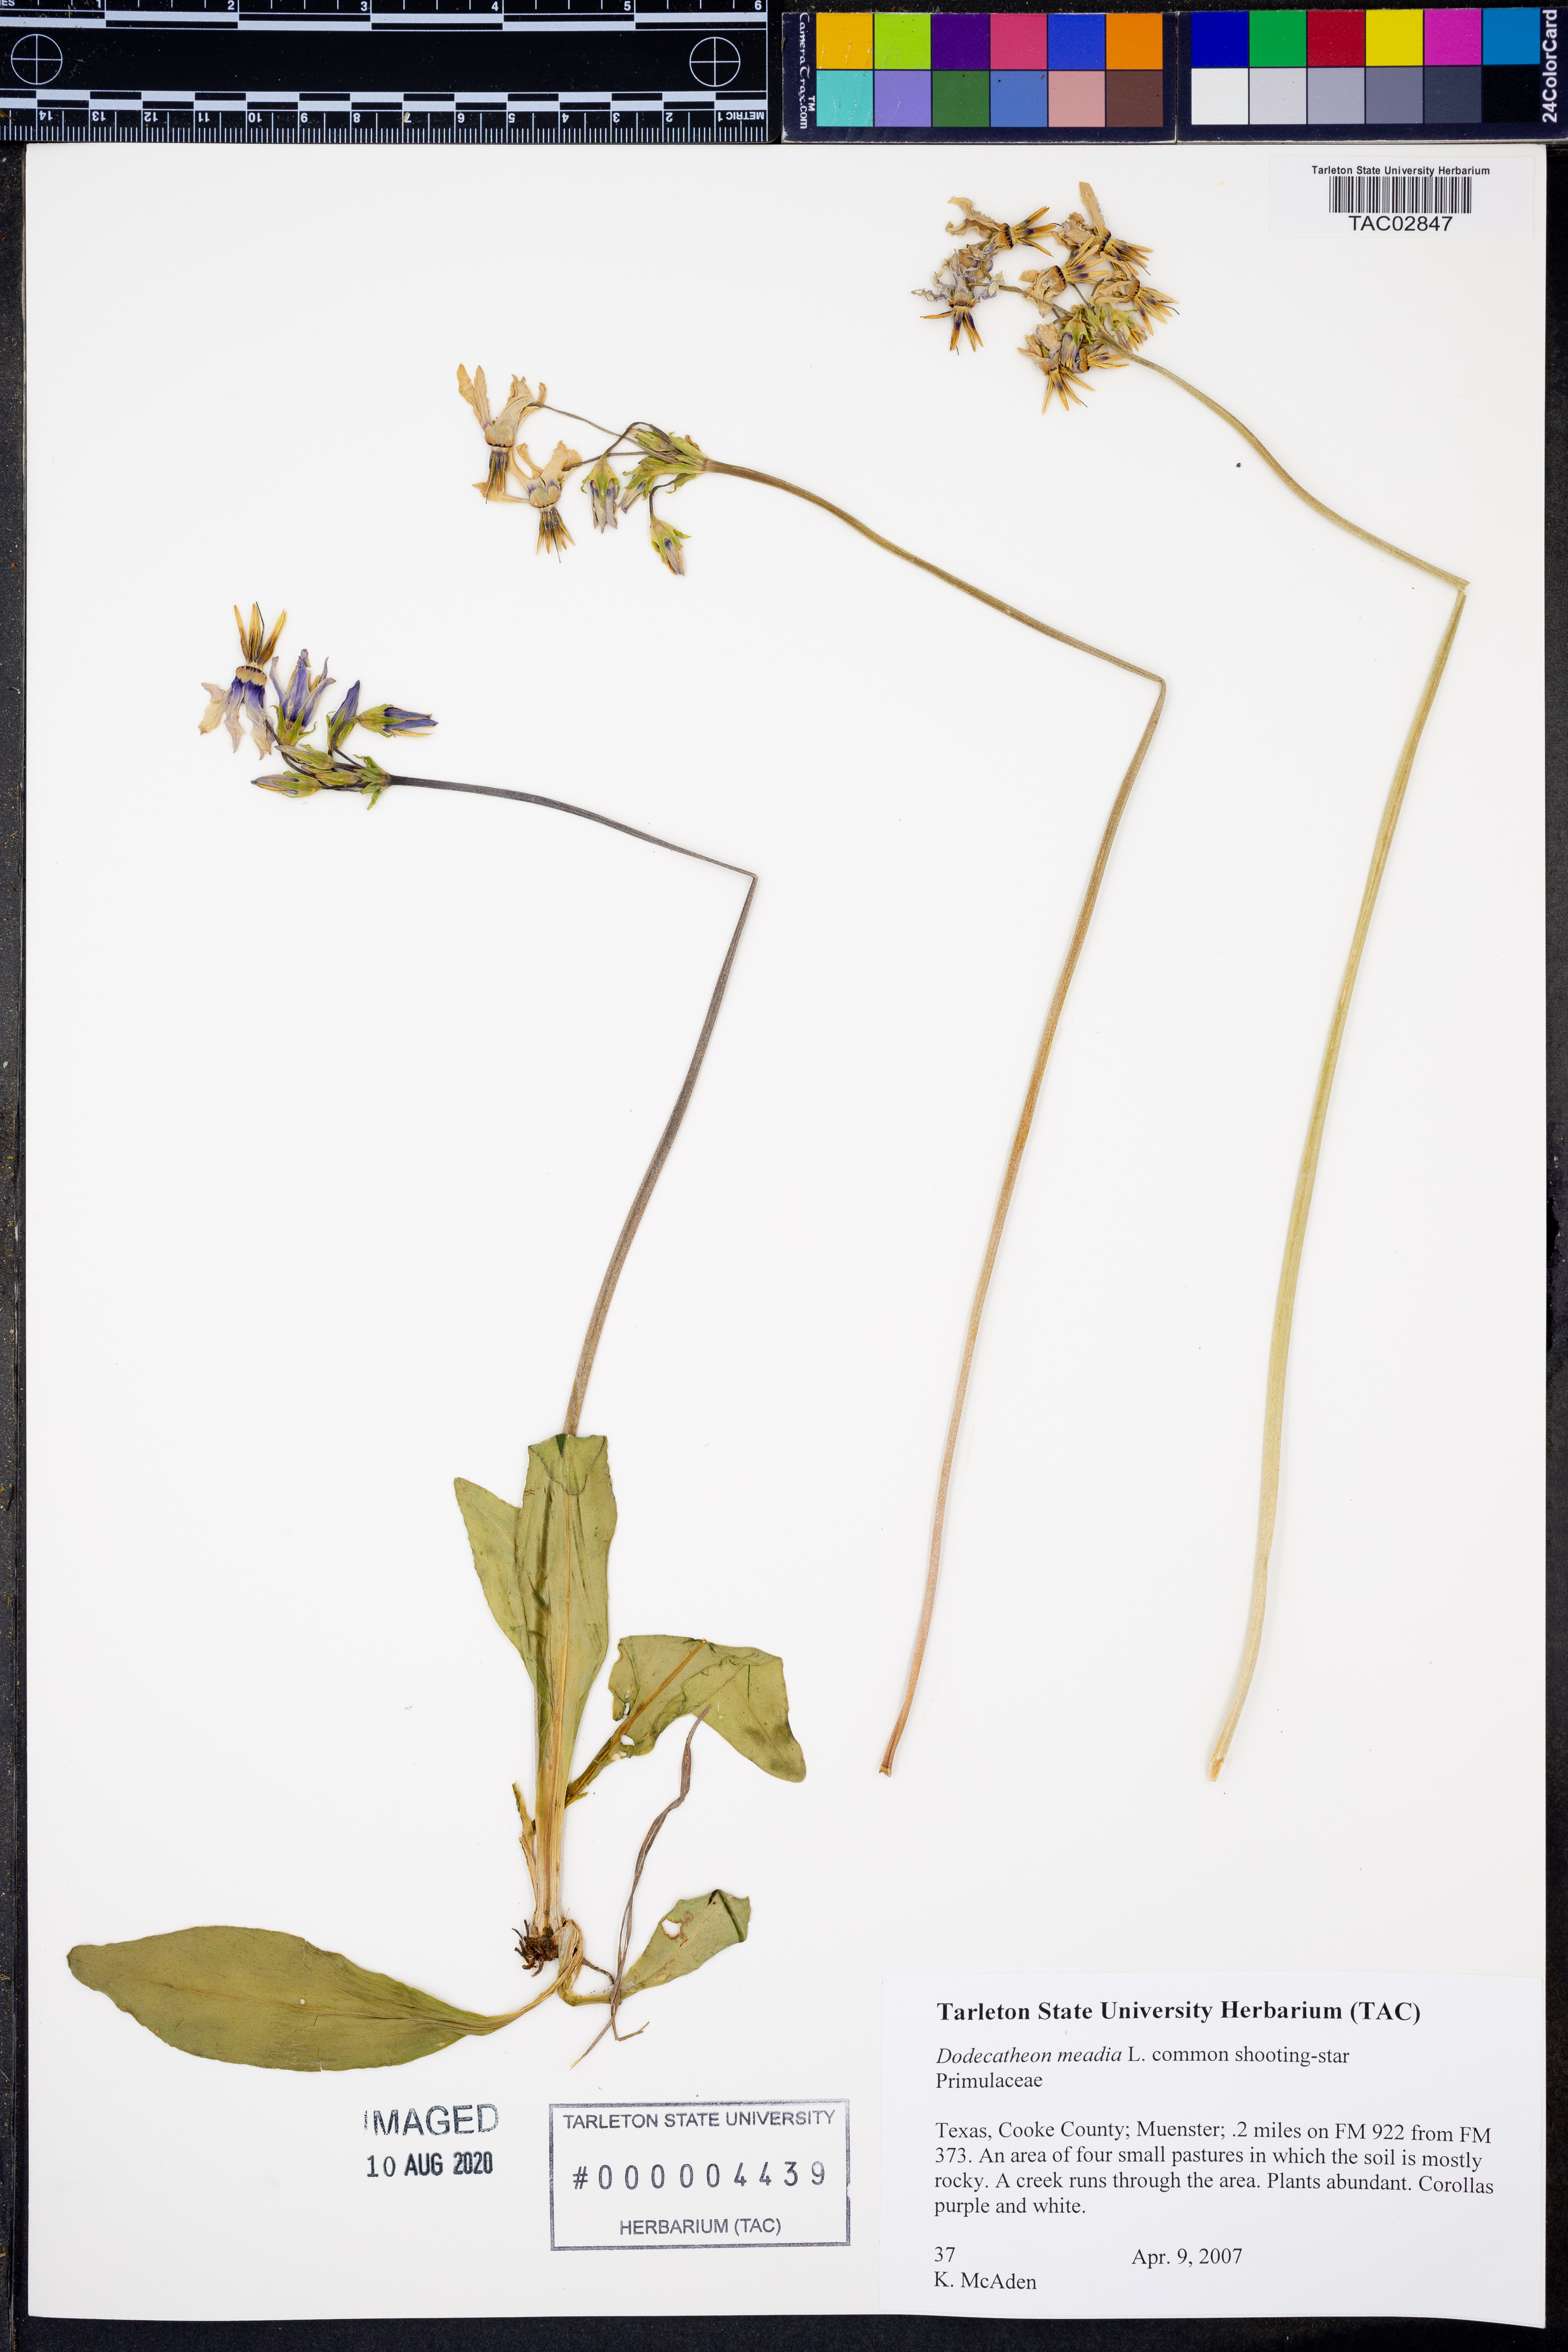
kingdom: Plantae
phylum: Tracheophyta
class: Magnoliopsida
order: Ericales
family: Primulaceae
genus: Dodecatheon
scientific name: Dodecatheon meadia
